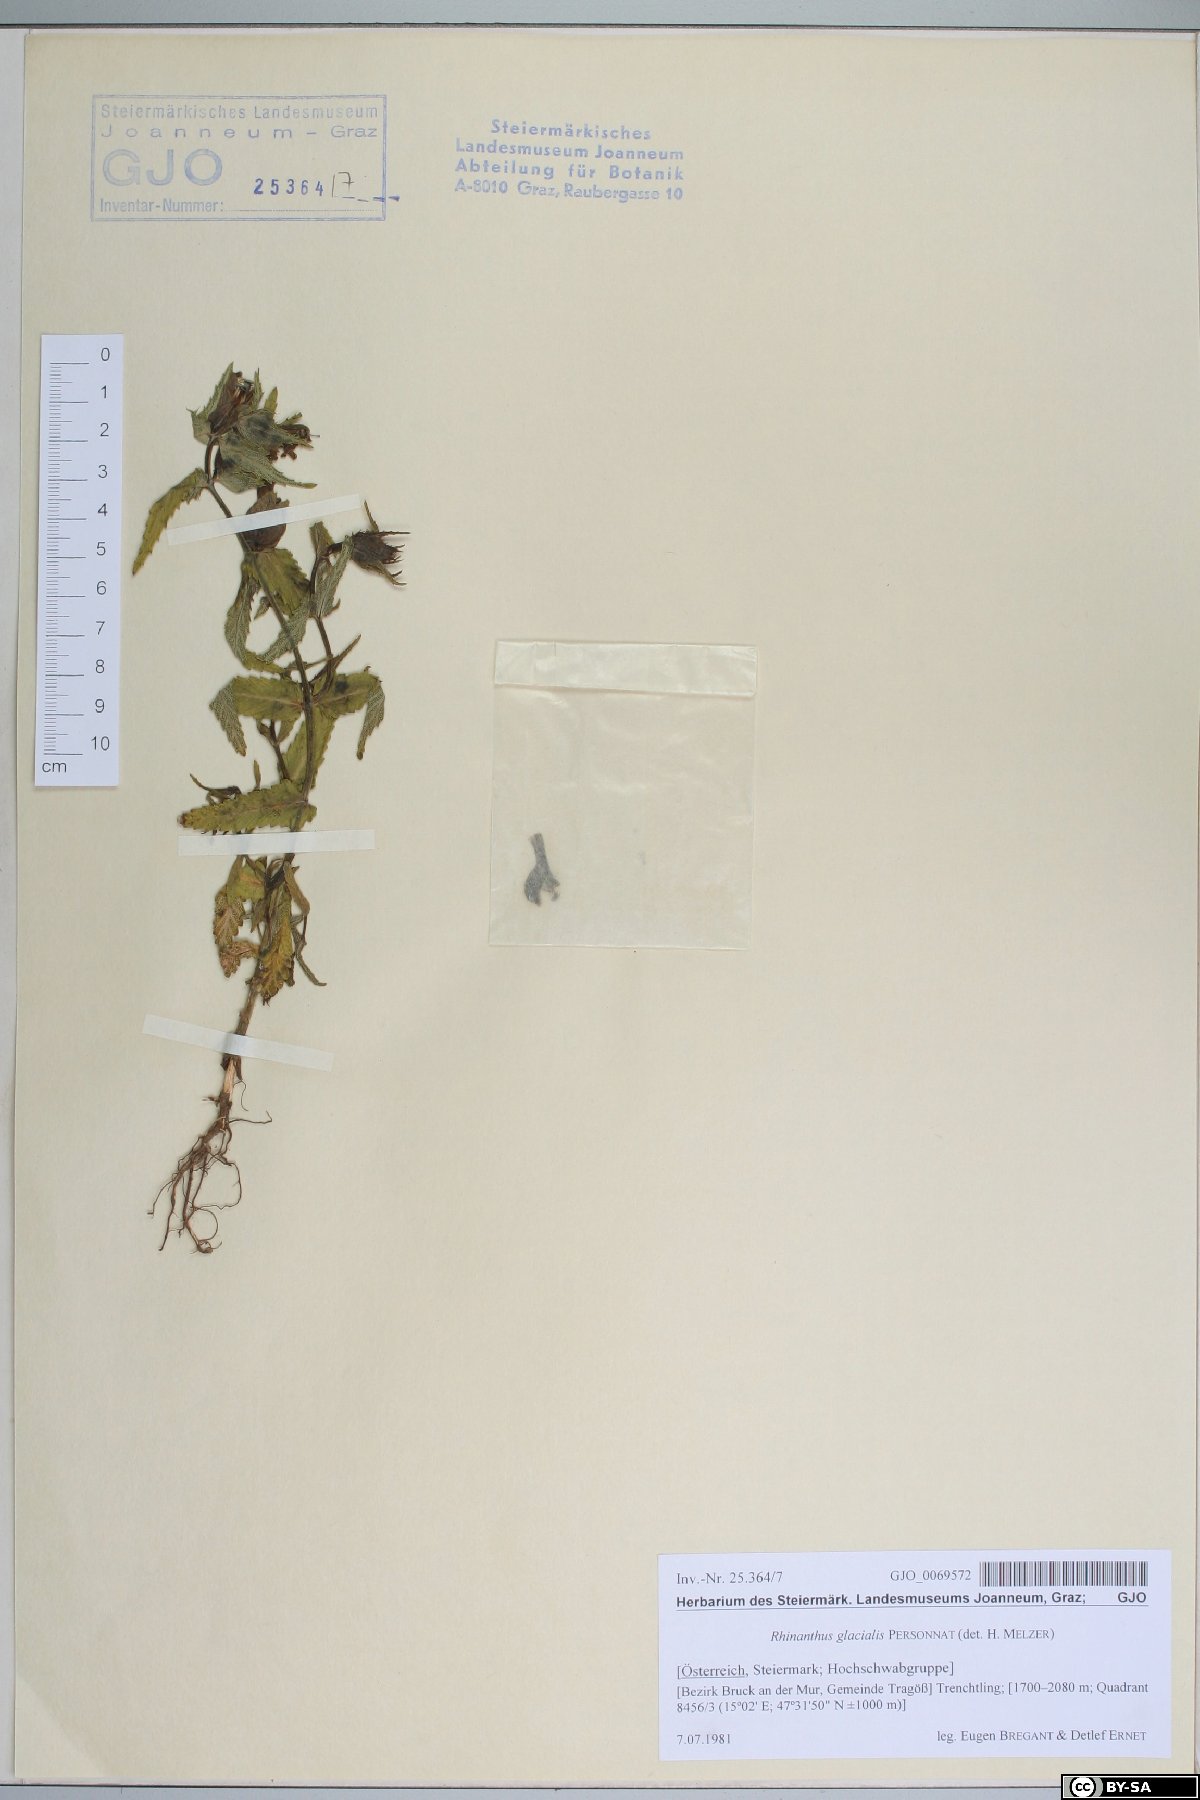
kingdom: Plantae
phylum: Tracheophyta
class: Magnoliopsida
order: Lamiales
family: Orobanchaceae
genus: Rhinanthus
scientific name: Rhinanthus glacialis
